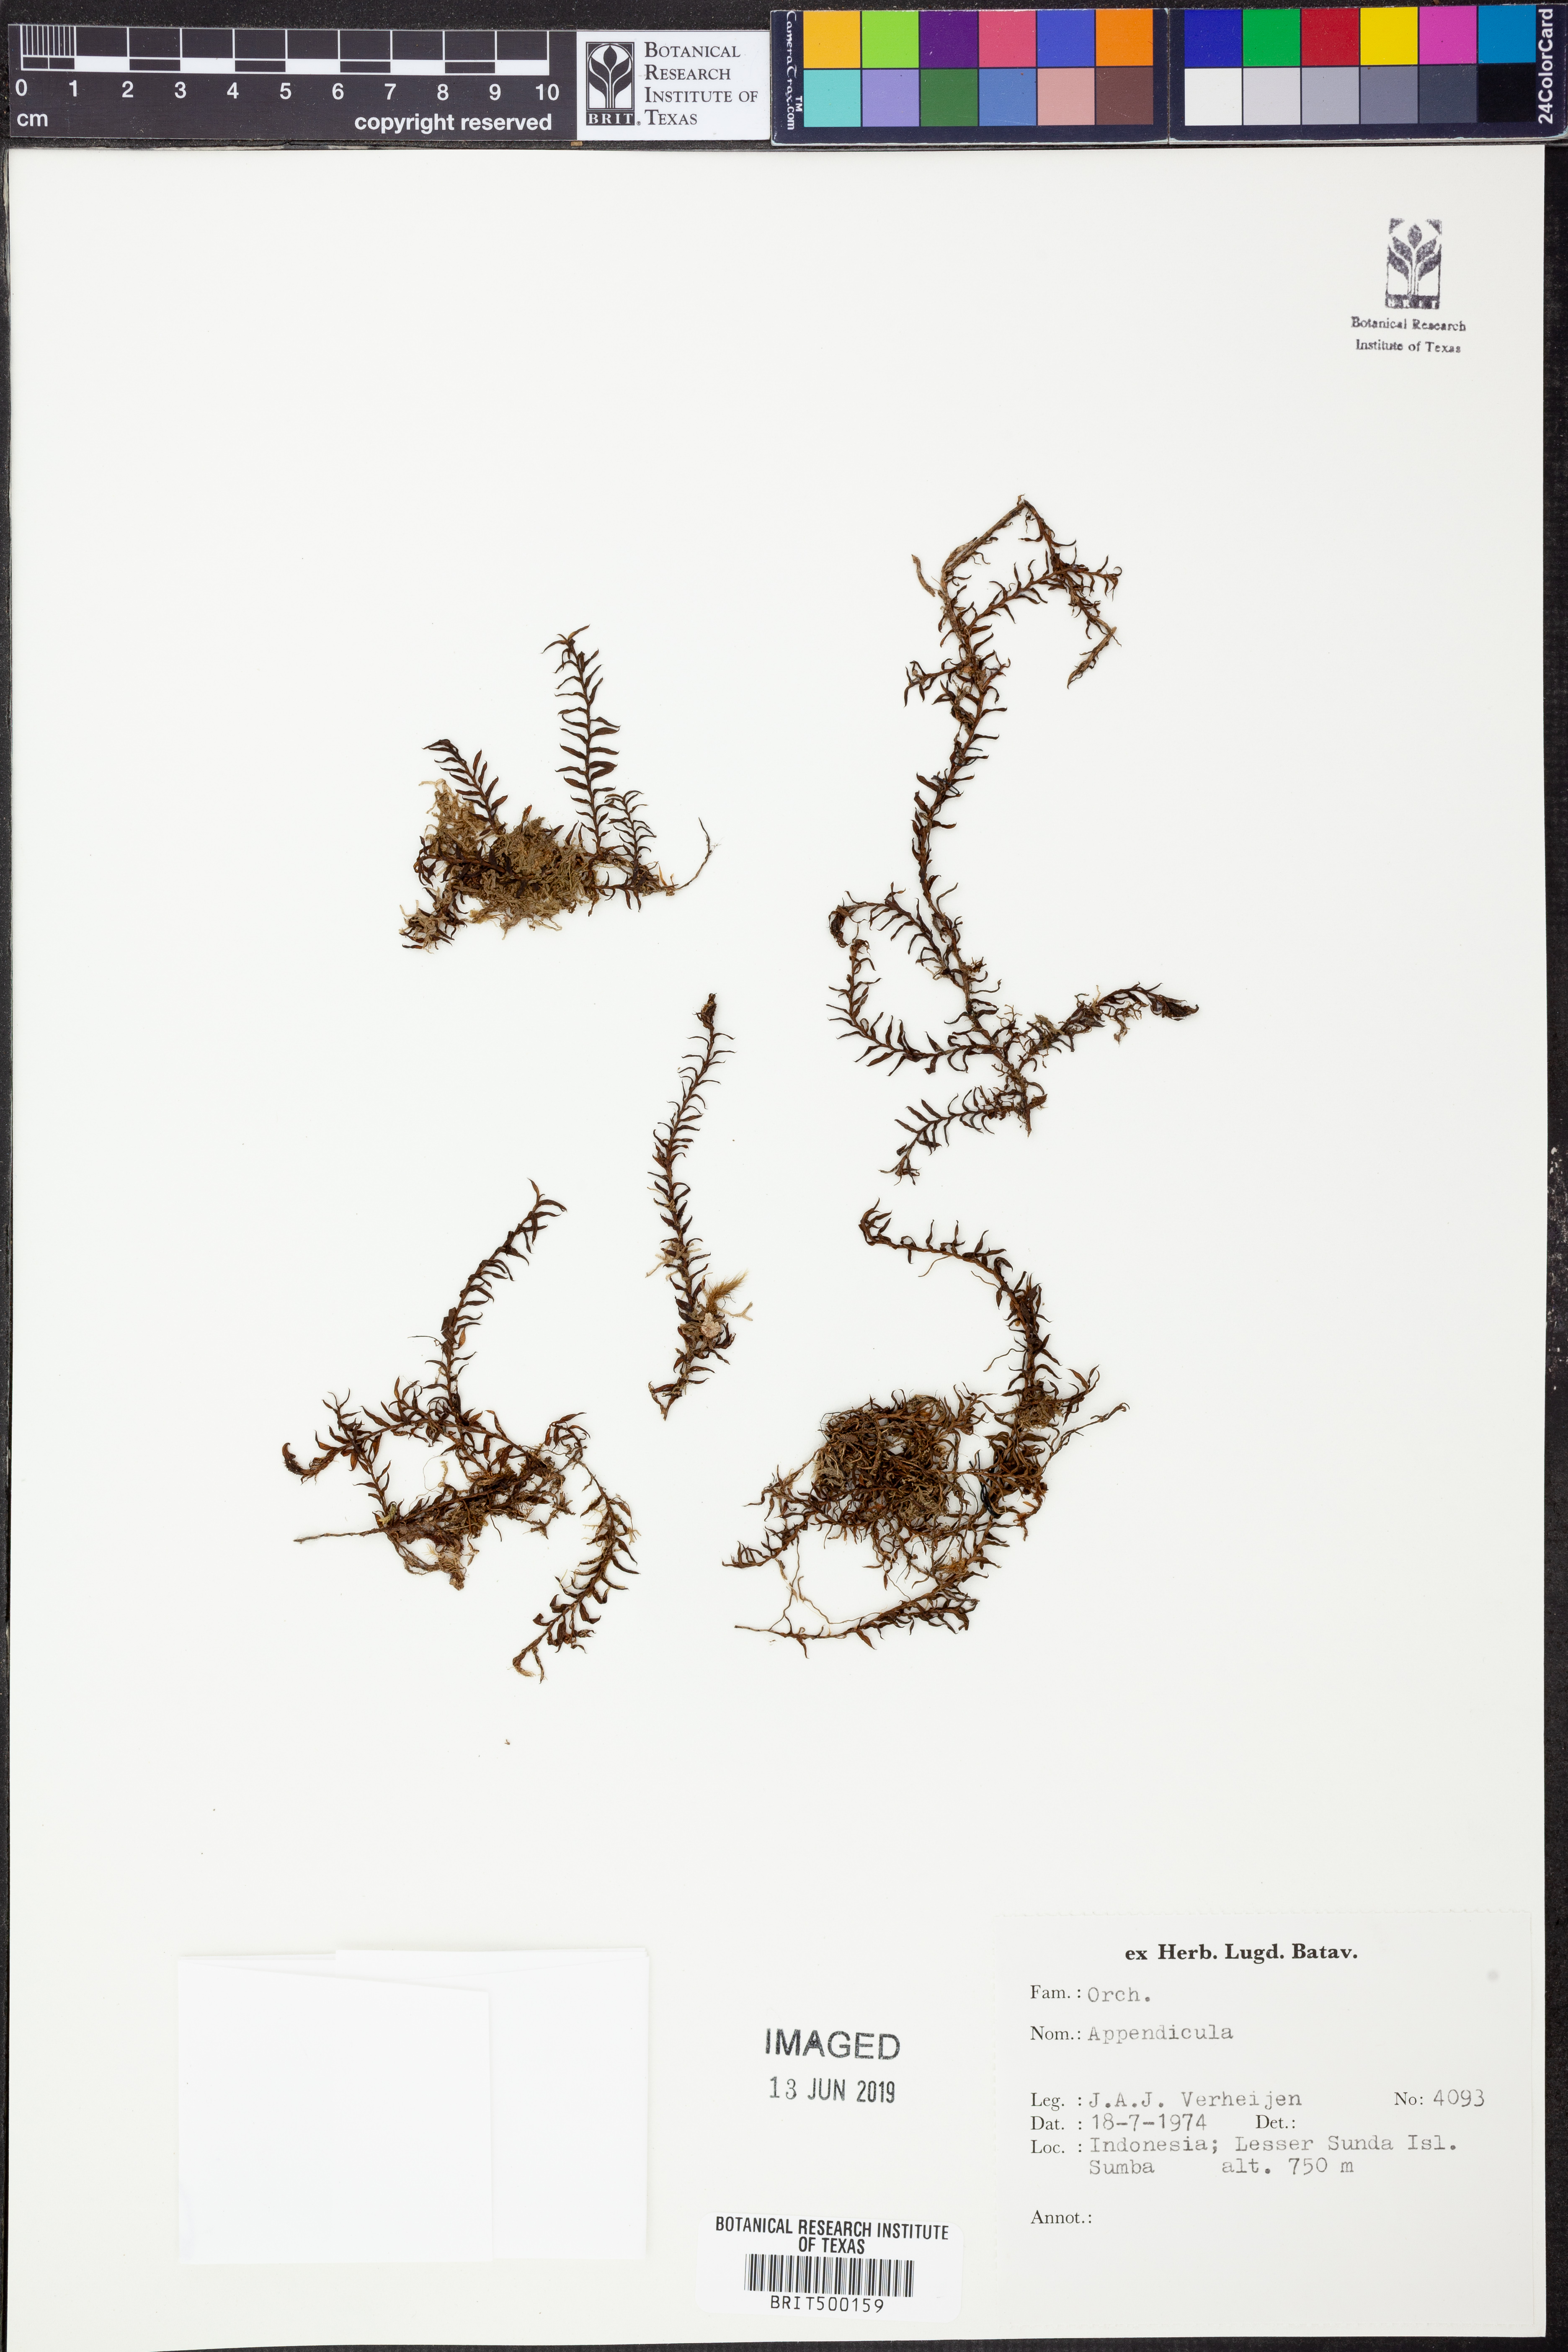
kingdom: Plantae
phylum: Tracheophyta
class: Liliopsida
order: Asparagales
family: Orchidaceae
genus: Appendicula
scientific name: Appendicula
